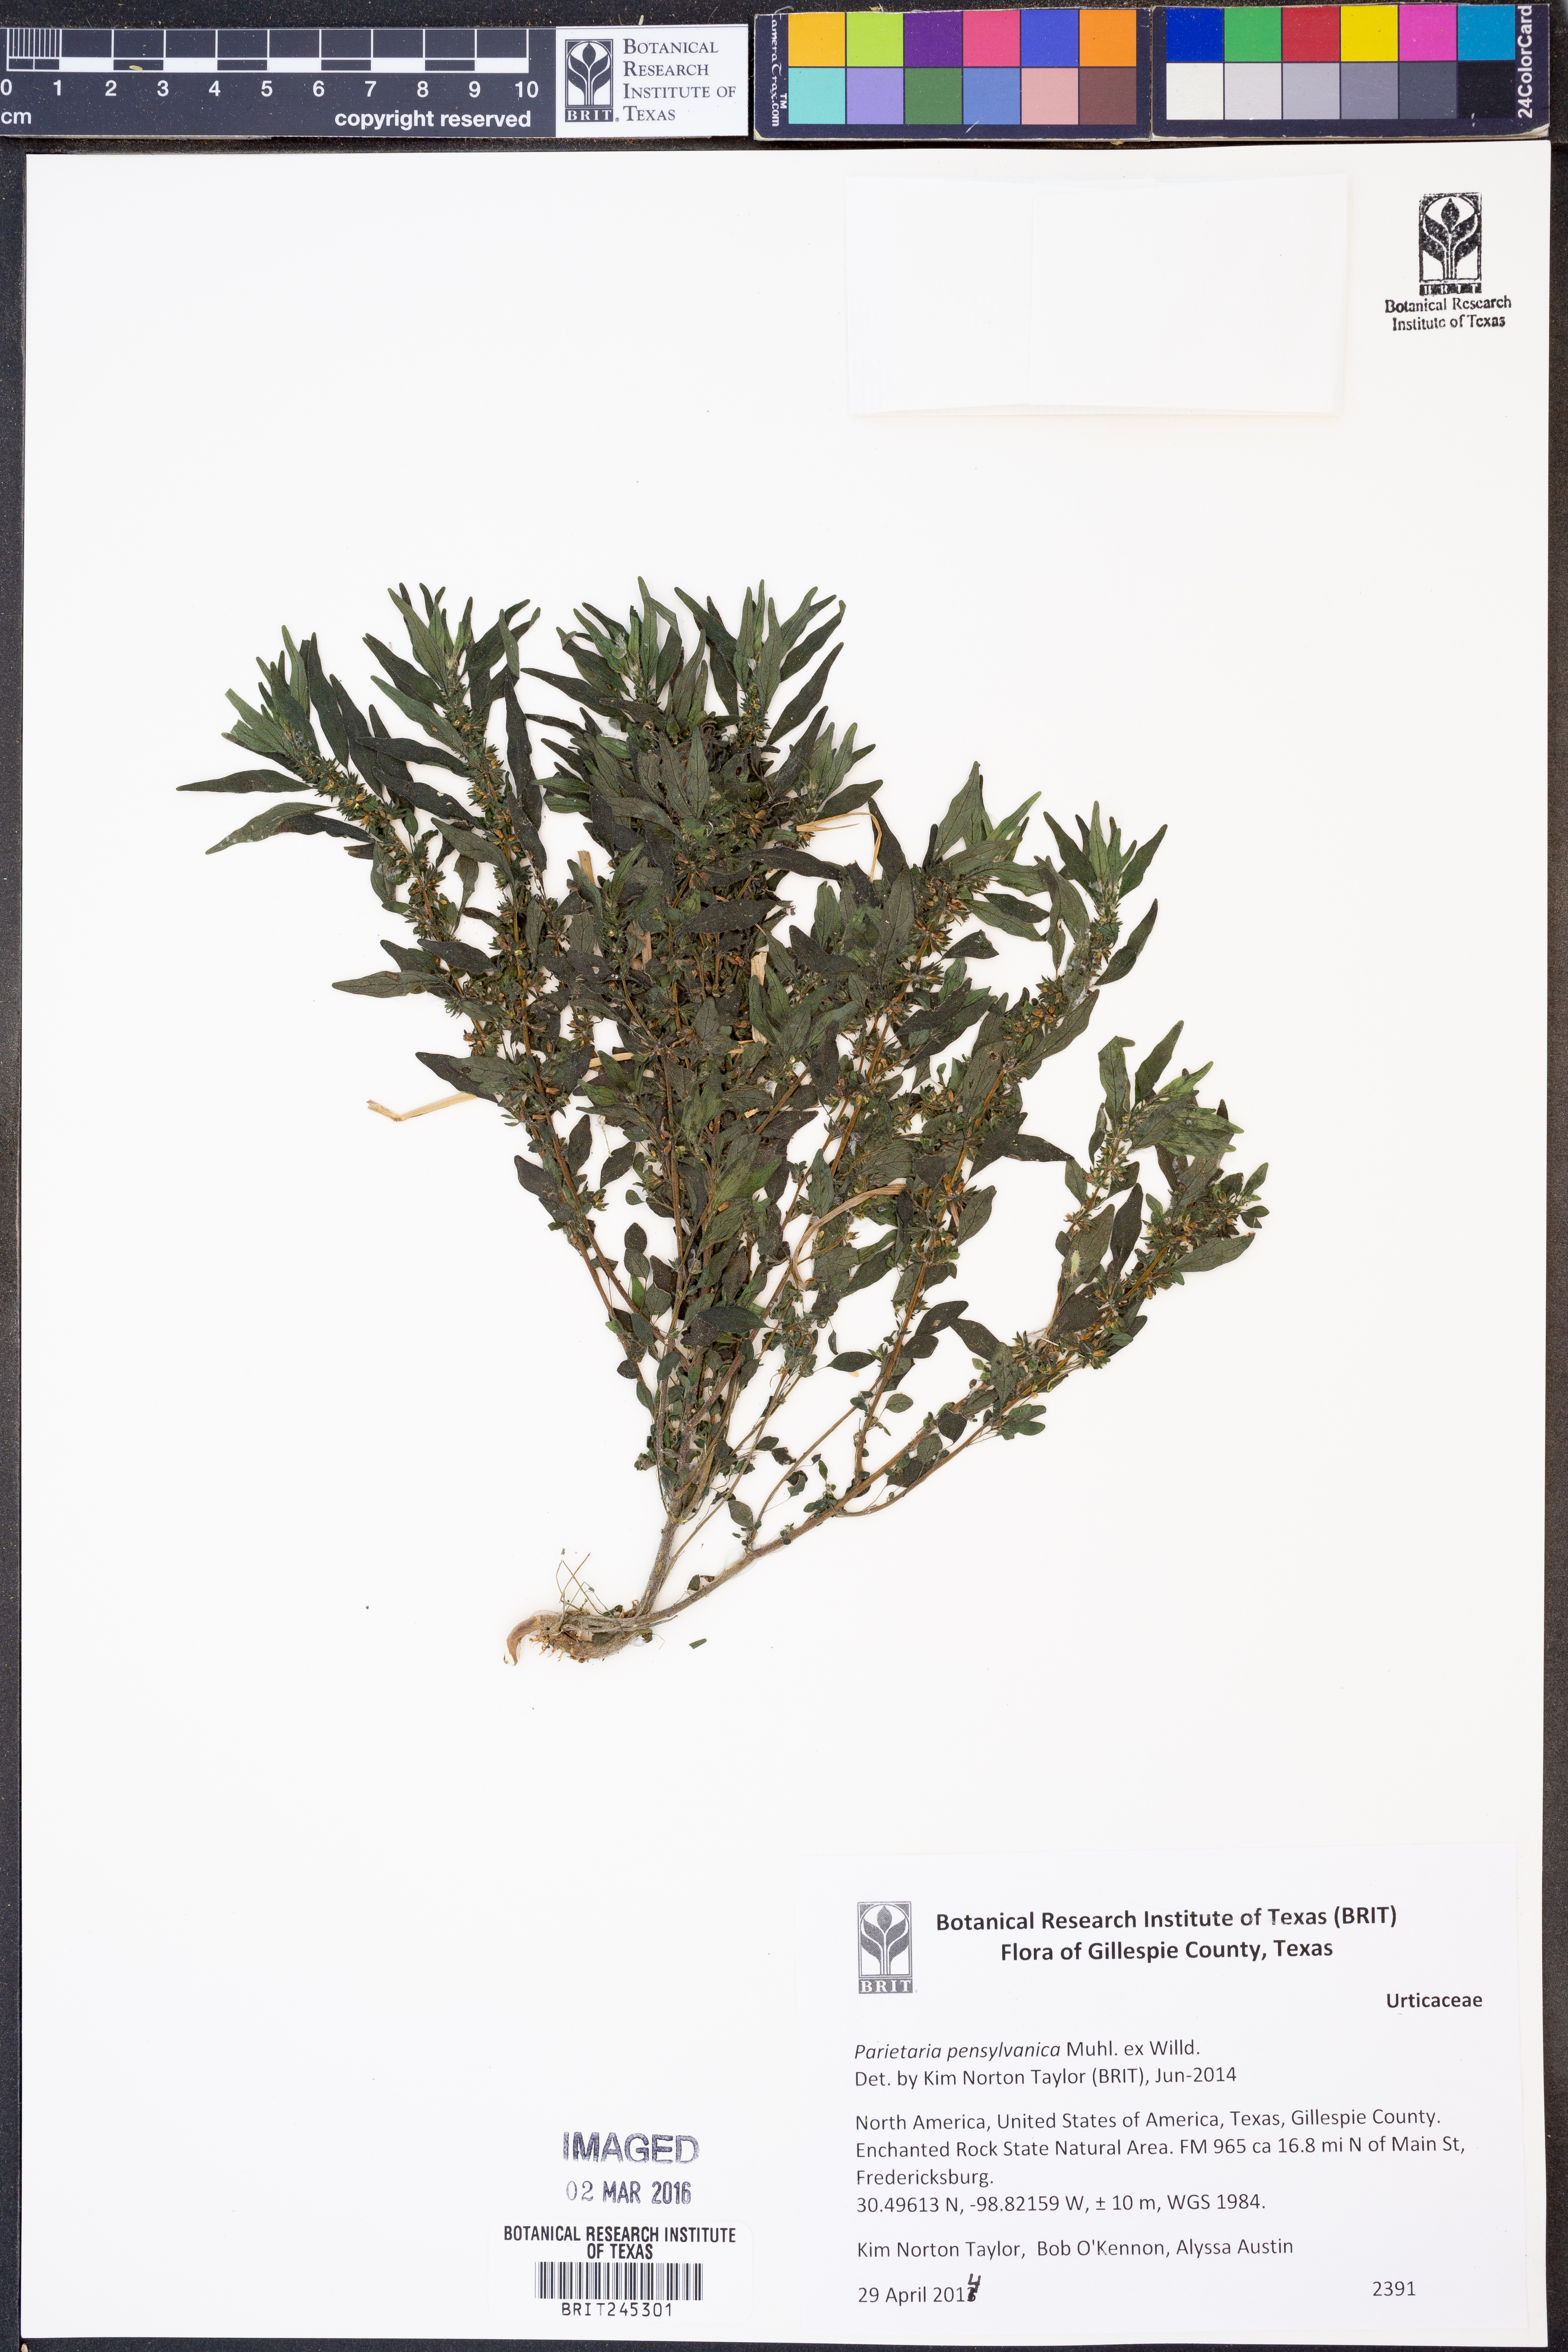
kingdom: Plantae
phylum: Tracheophyta
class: Magnoliopsida
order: Rosales
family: Urticaceae
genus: Parietaria
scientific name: Parietaria pensylvanica
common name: Pennsylvania pellitory
